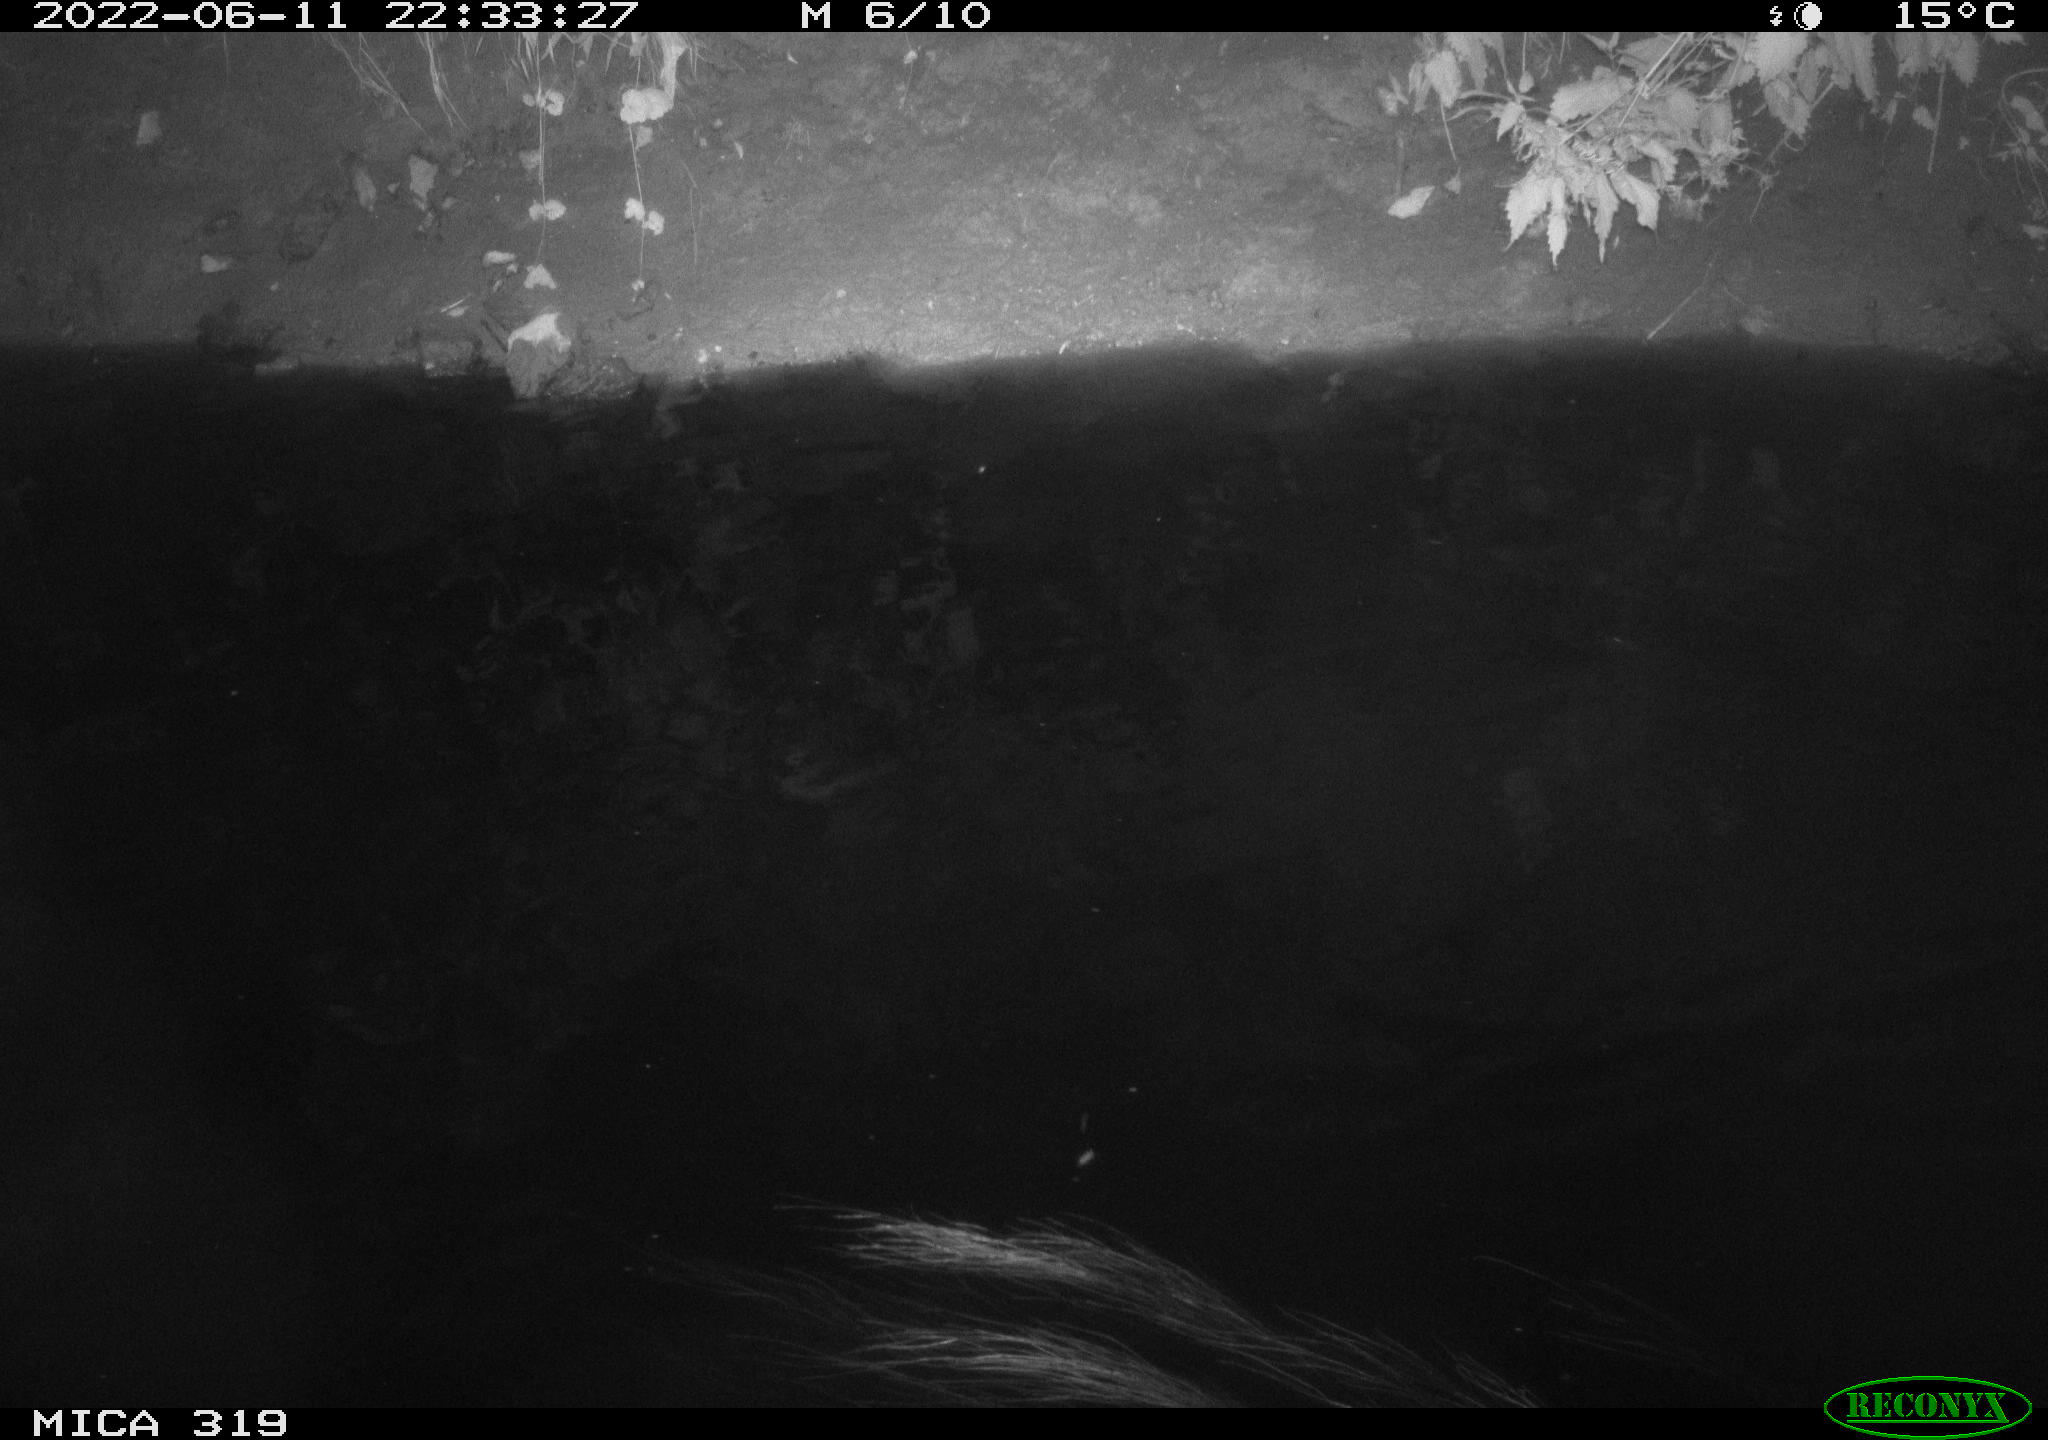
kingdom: Animalia
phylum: Chordata
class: Aves
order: Anseriformes
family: Anatidae
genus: Anas
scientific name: Anas
